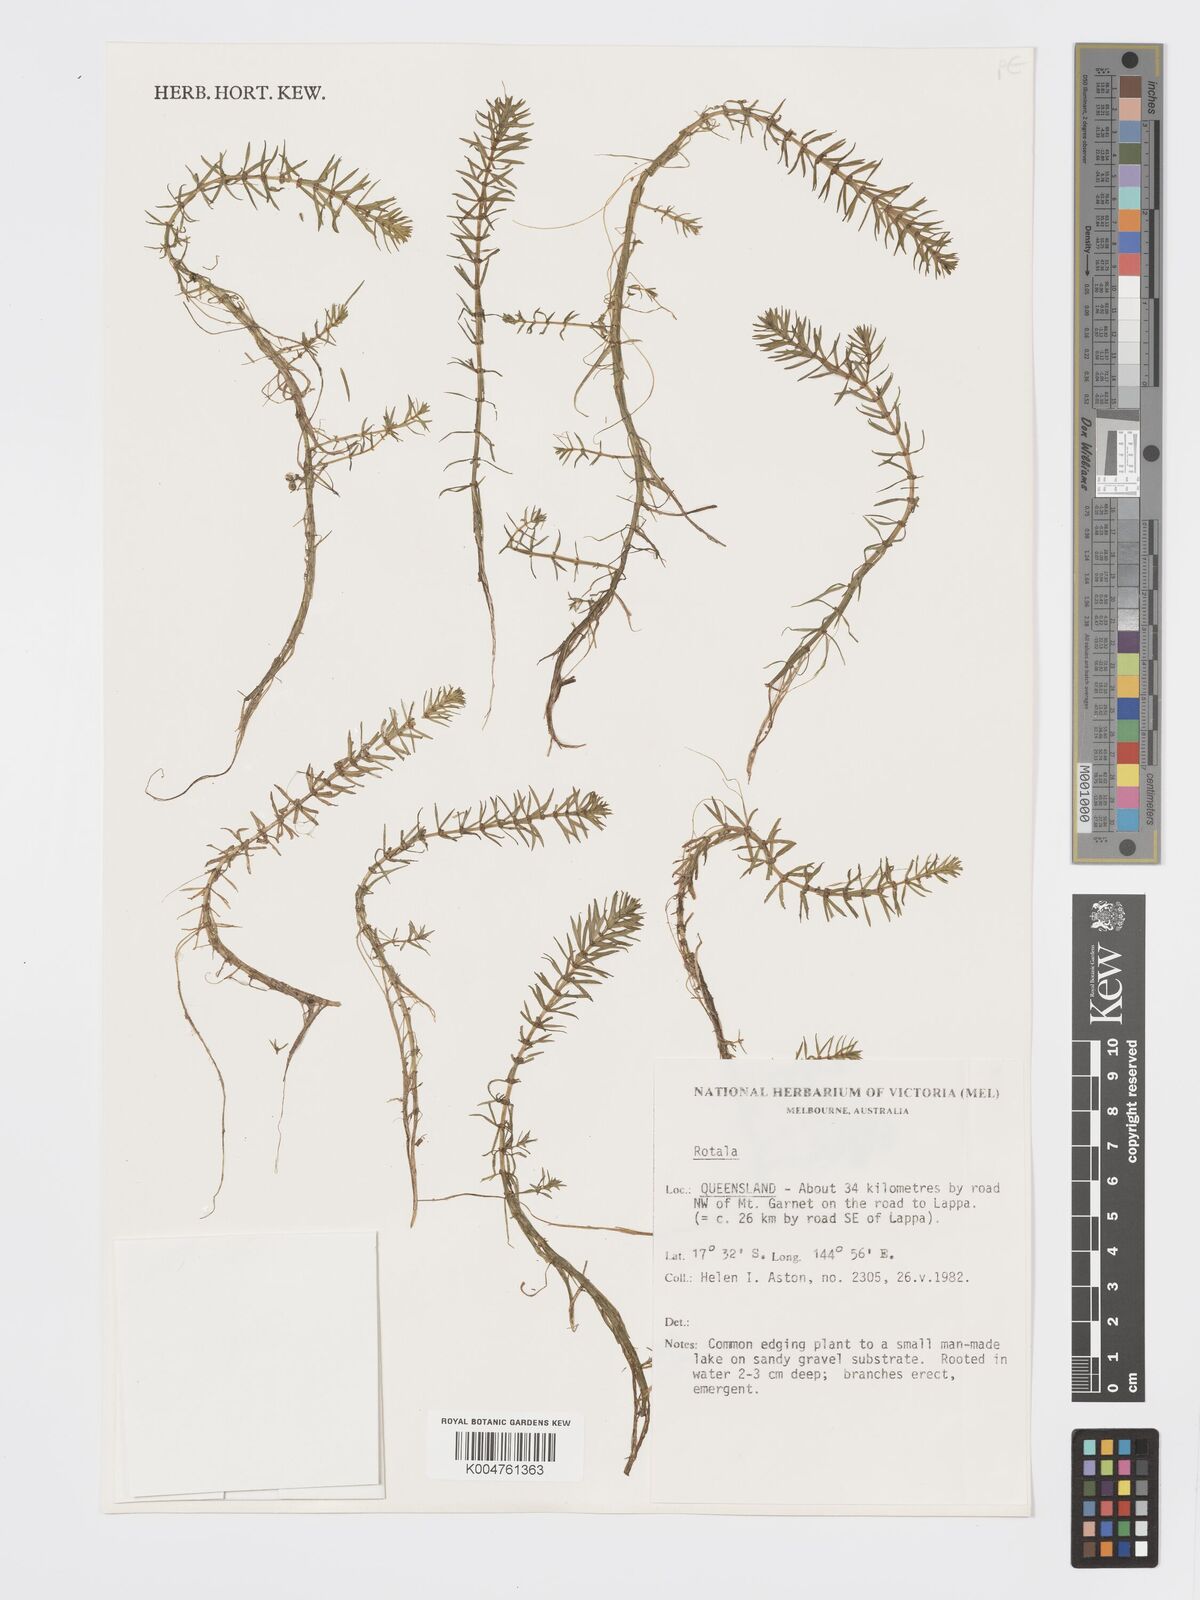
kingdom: Plantae
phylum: Tracheophyta
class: Magnoliopsida
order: Myrtales
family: Lythraceae
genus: Rotala
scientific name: Rotala mexicana
